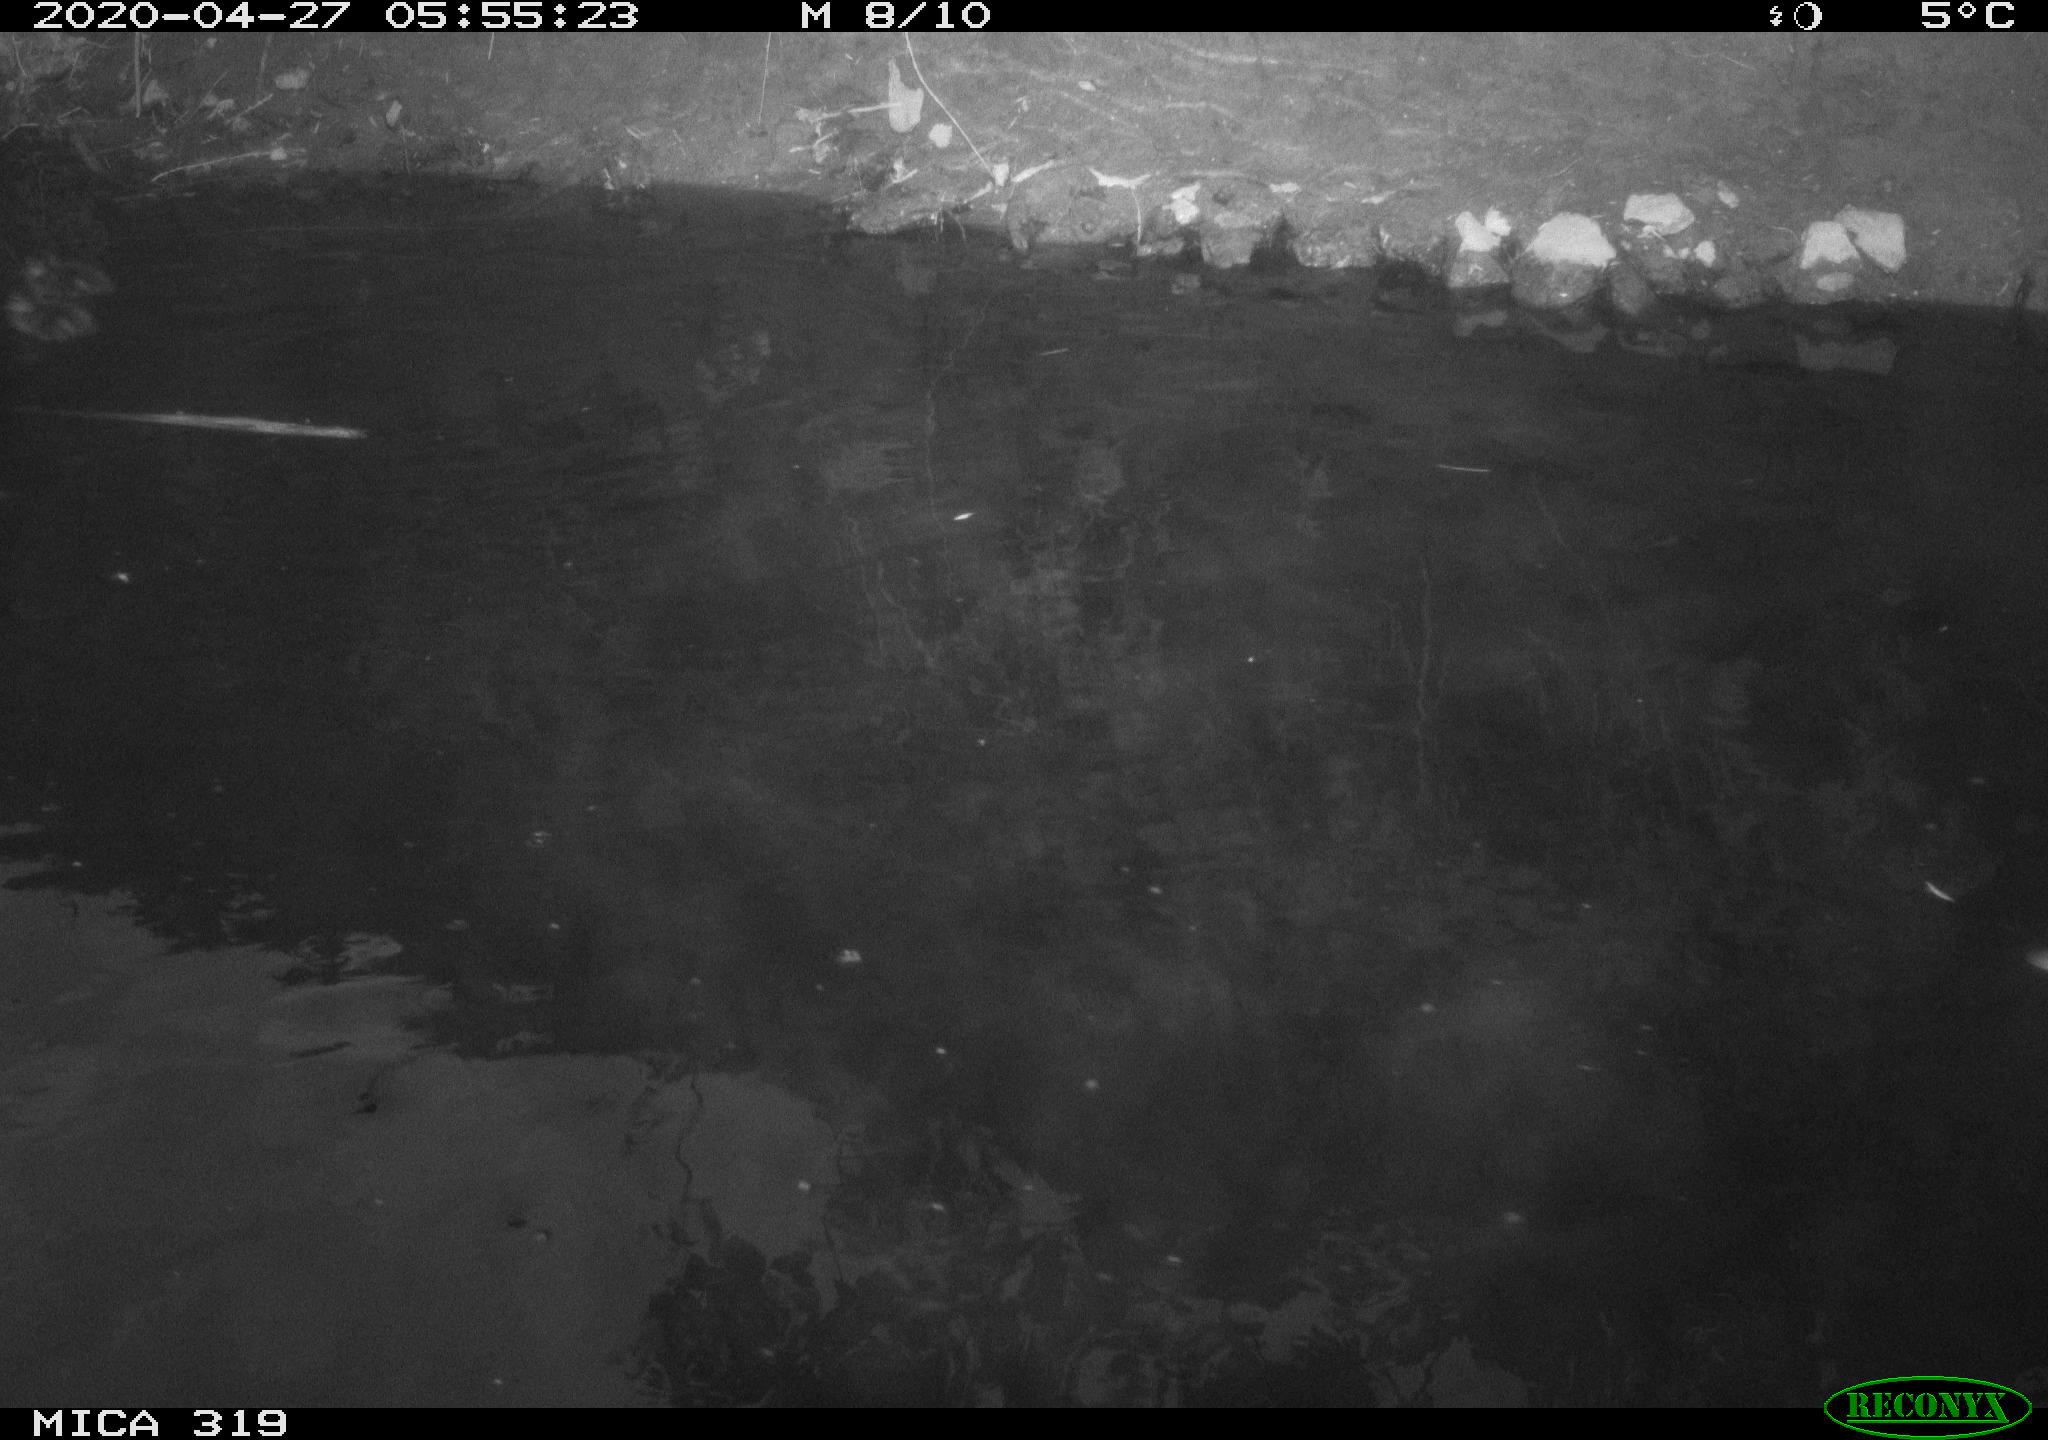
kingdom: Animalia
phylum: Chordata
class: Aves
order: Anseriformes
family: Anatidae
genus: Anas
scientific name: Anas platyrhynchos
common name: Mallard
